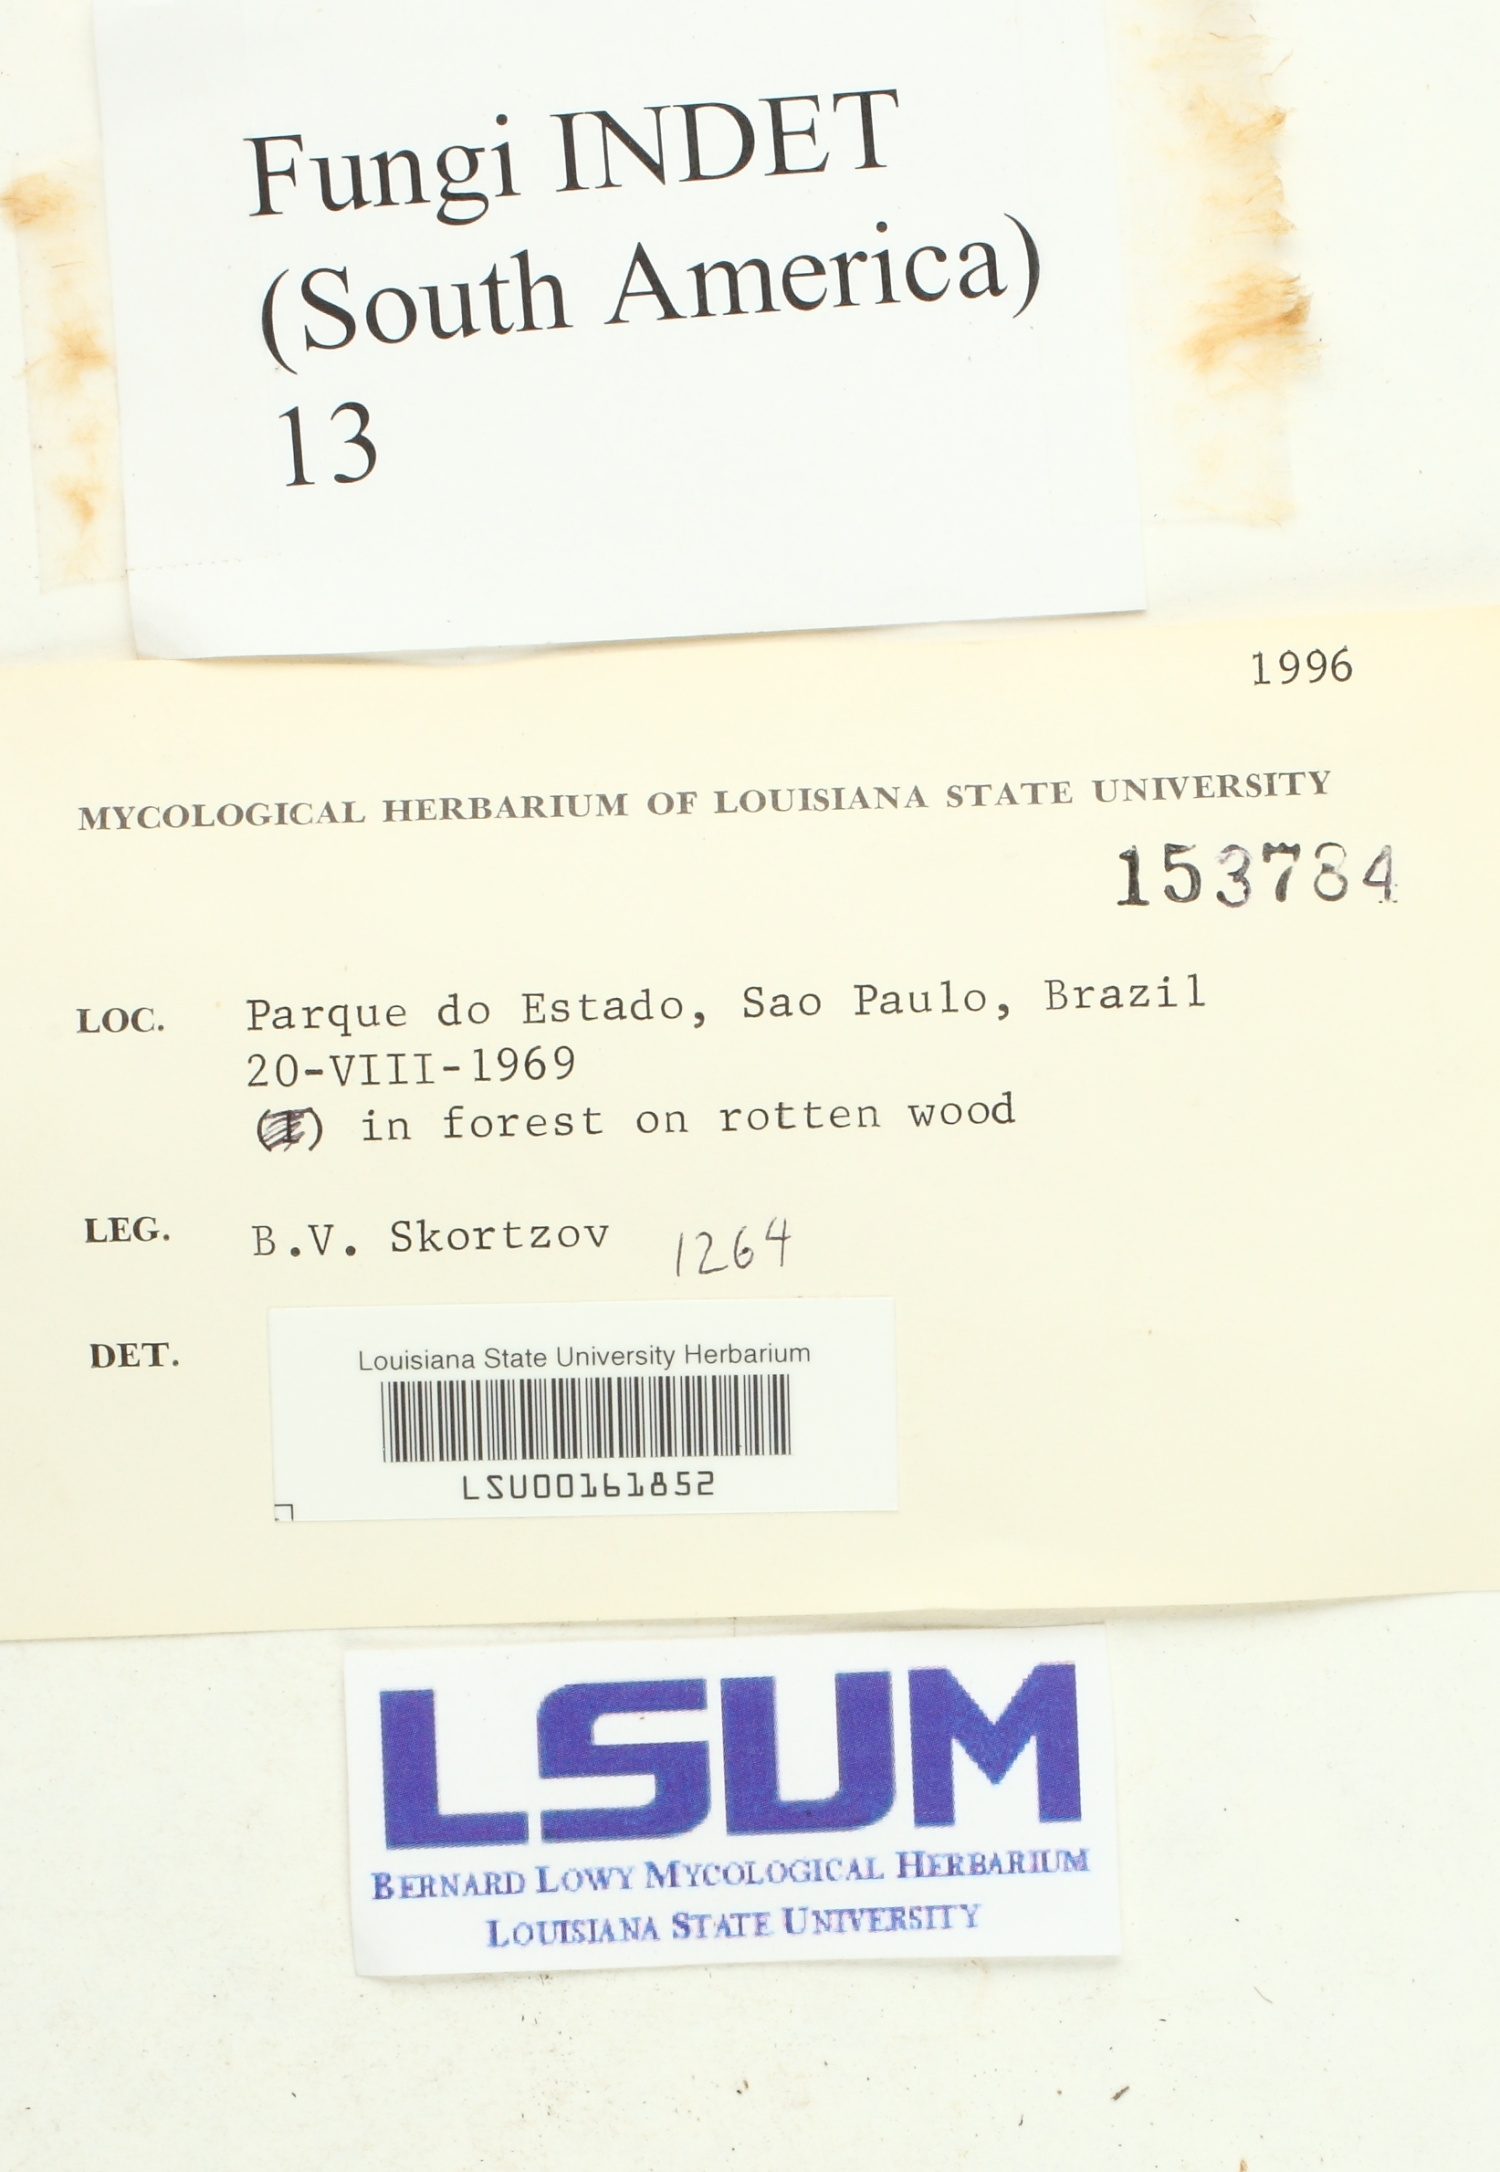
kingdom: Fungi
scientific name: Fungi
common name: Fungi
